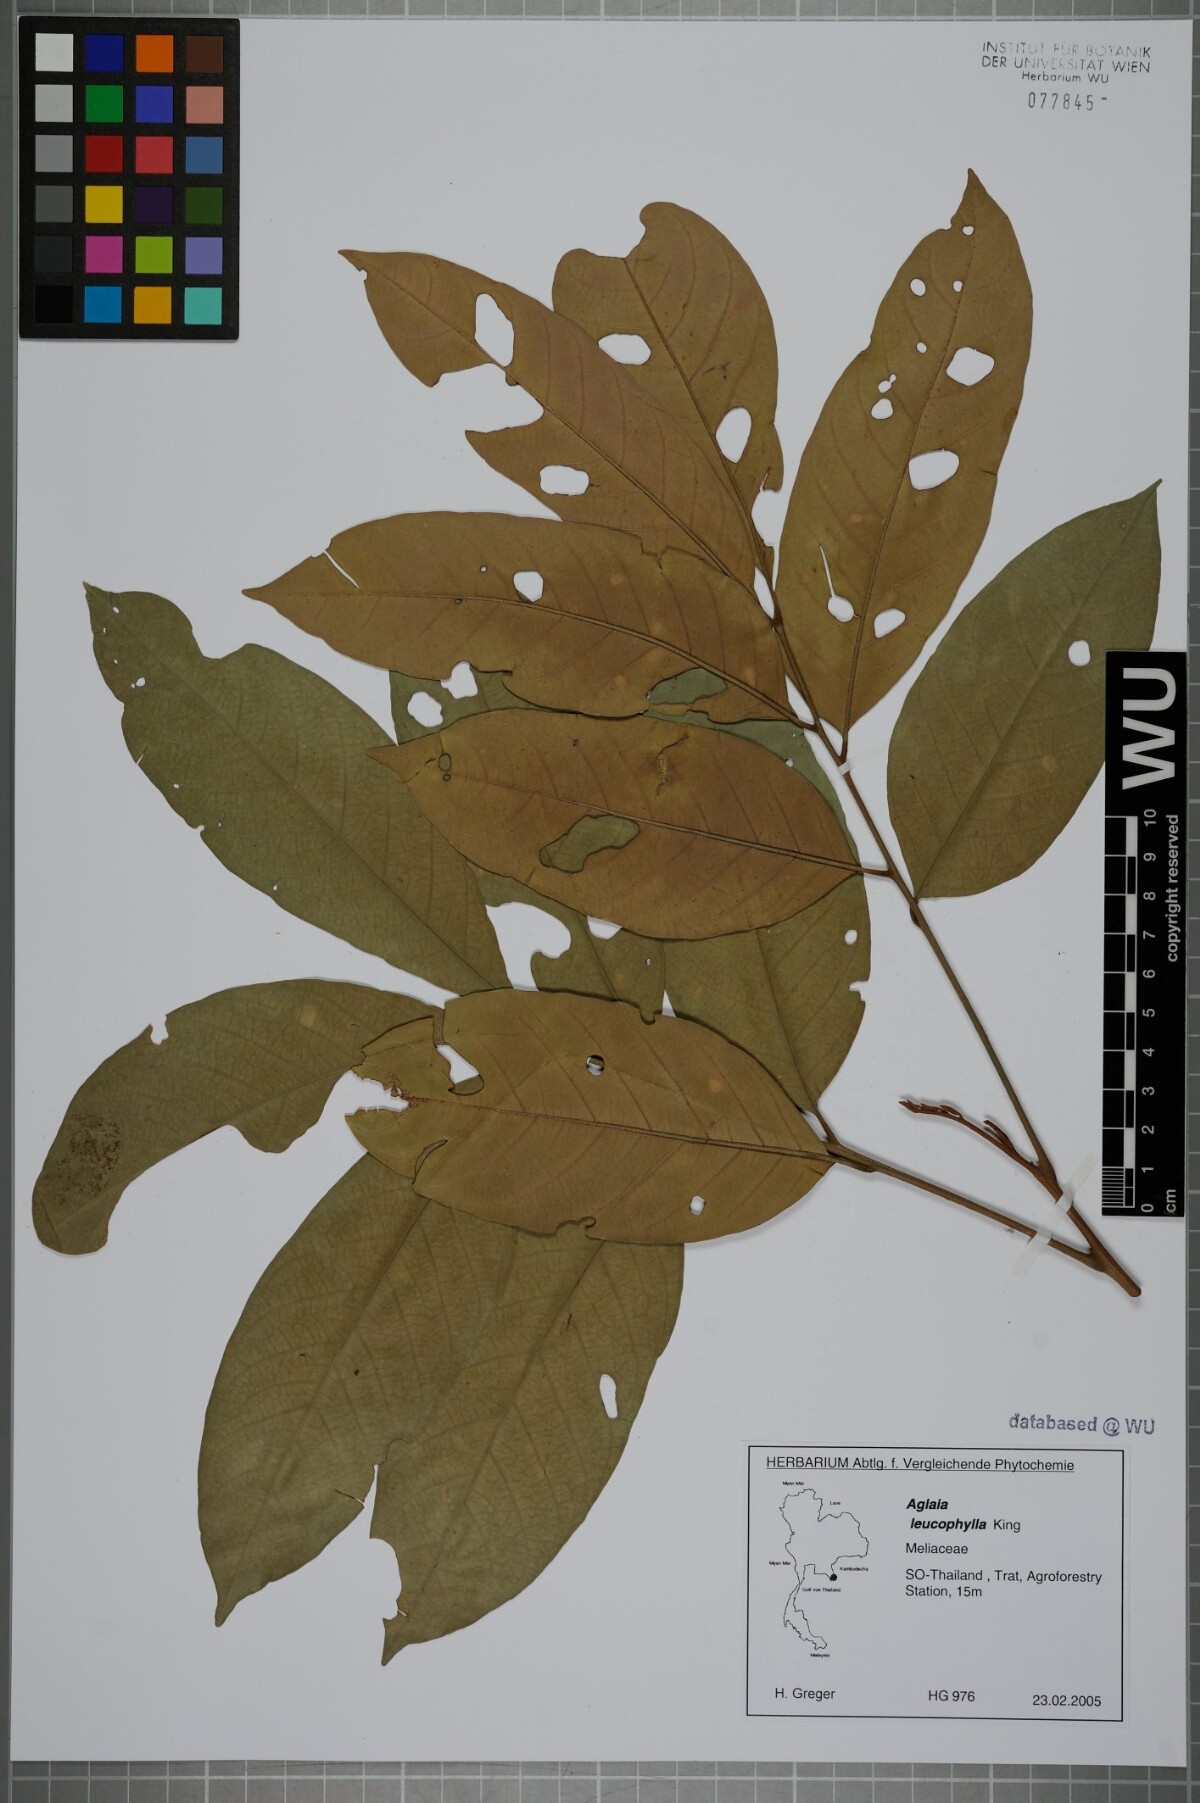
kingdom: Plantae
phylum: Tracheophyta
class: Magnoliopsida
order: Sapindales
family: Meliaceae
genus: Aglaia
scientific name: Aglaia leucophylla
